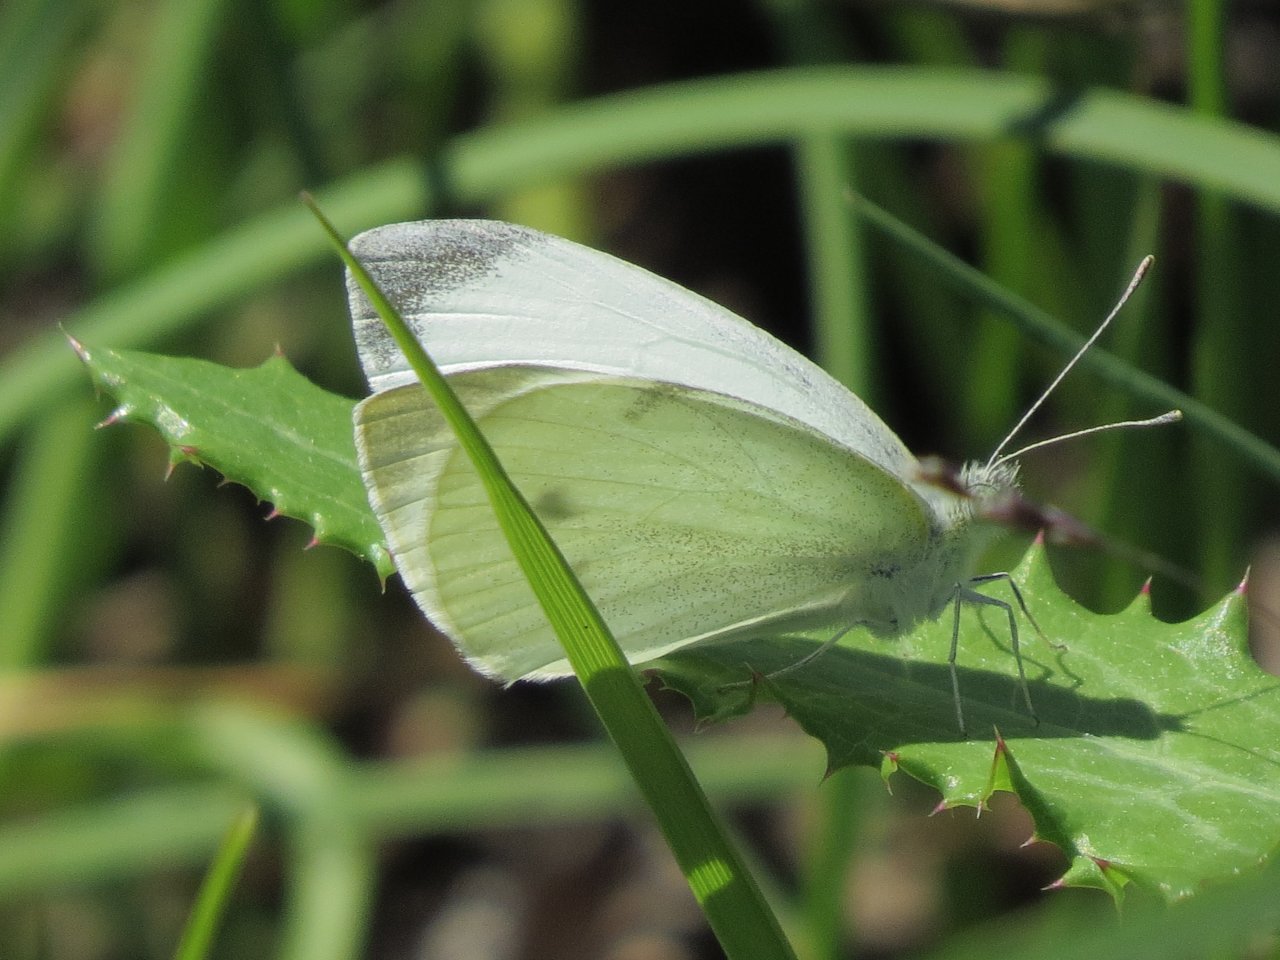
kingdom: Animalia
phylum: Arthropoda
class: Insecta
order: Lepidoptera
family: Pieridae
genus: Pieris
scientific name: Pieris rapae
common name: Cabbage White
